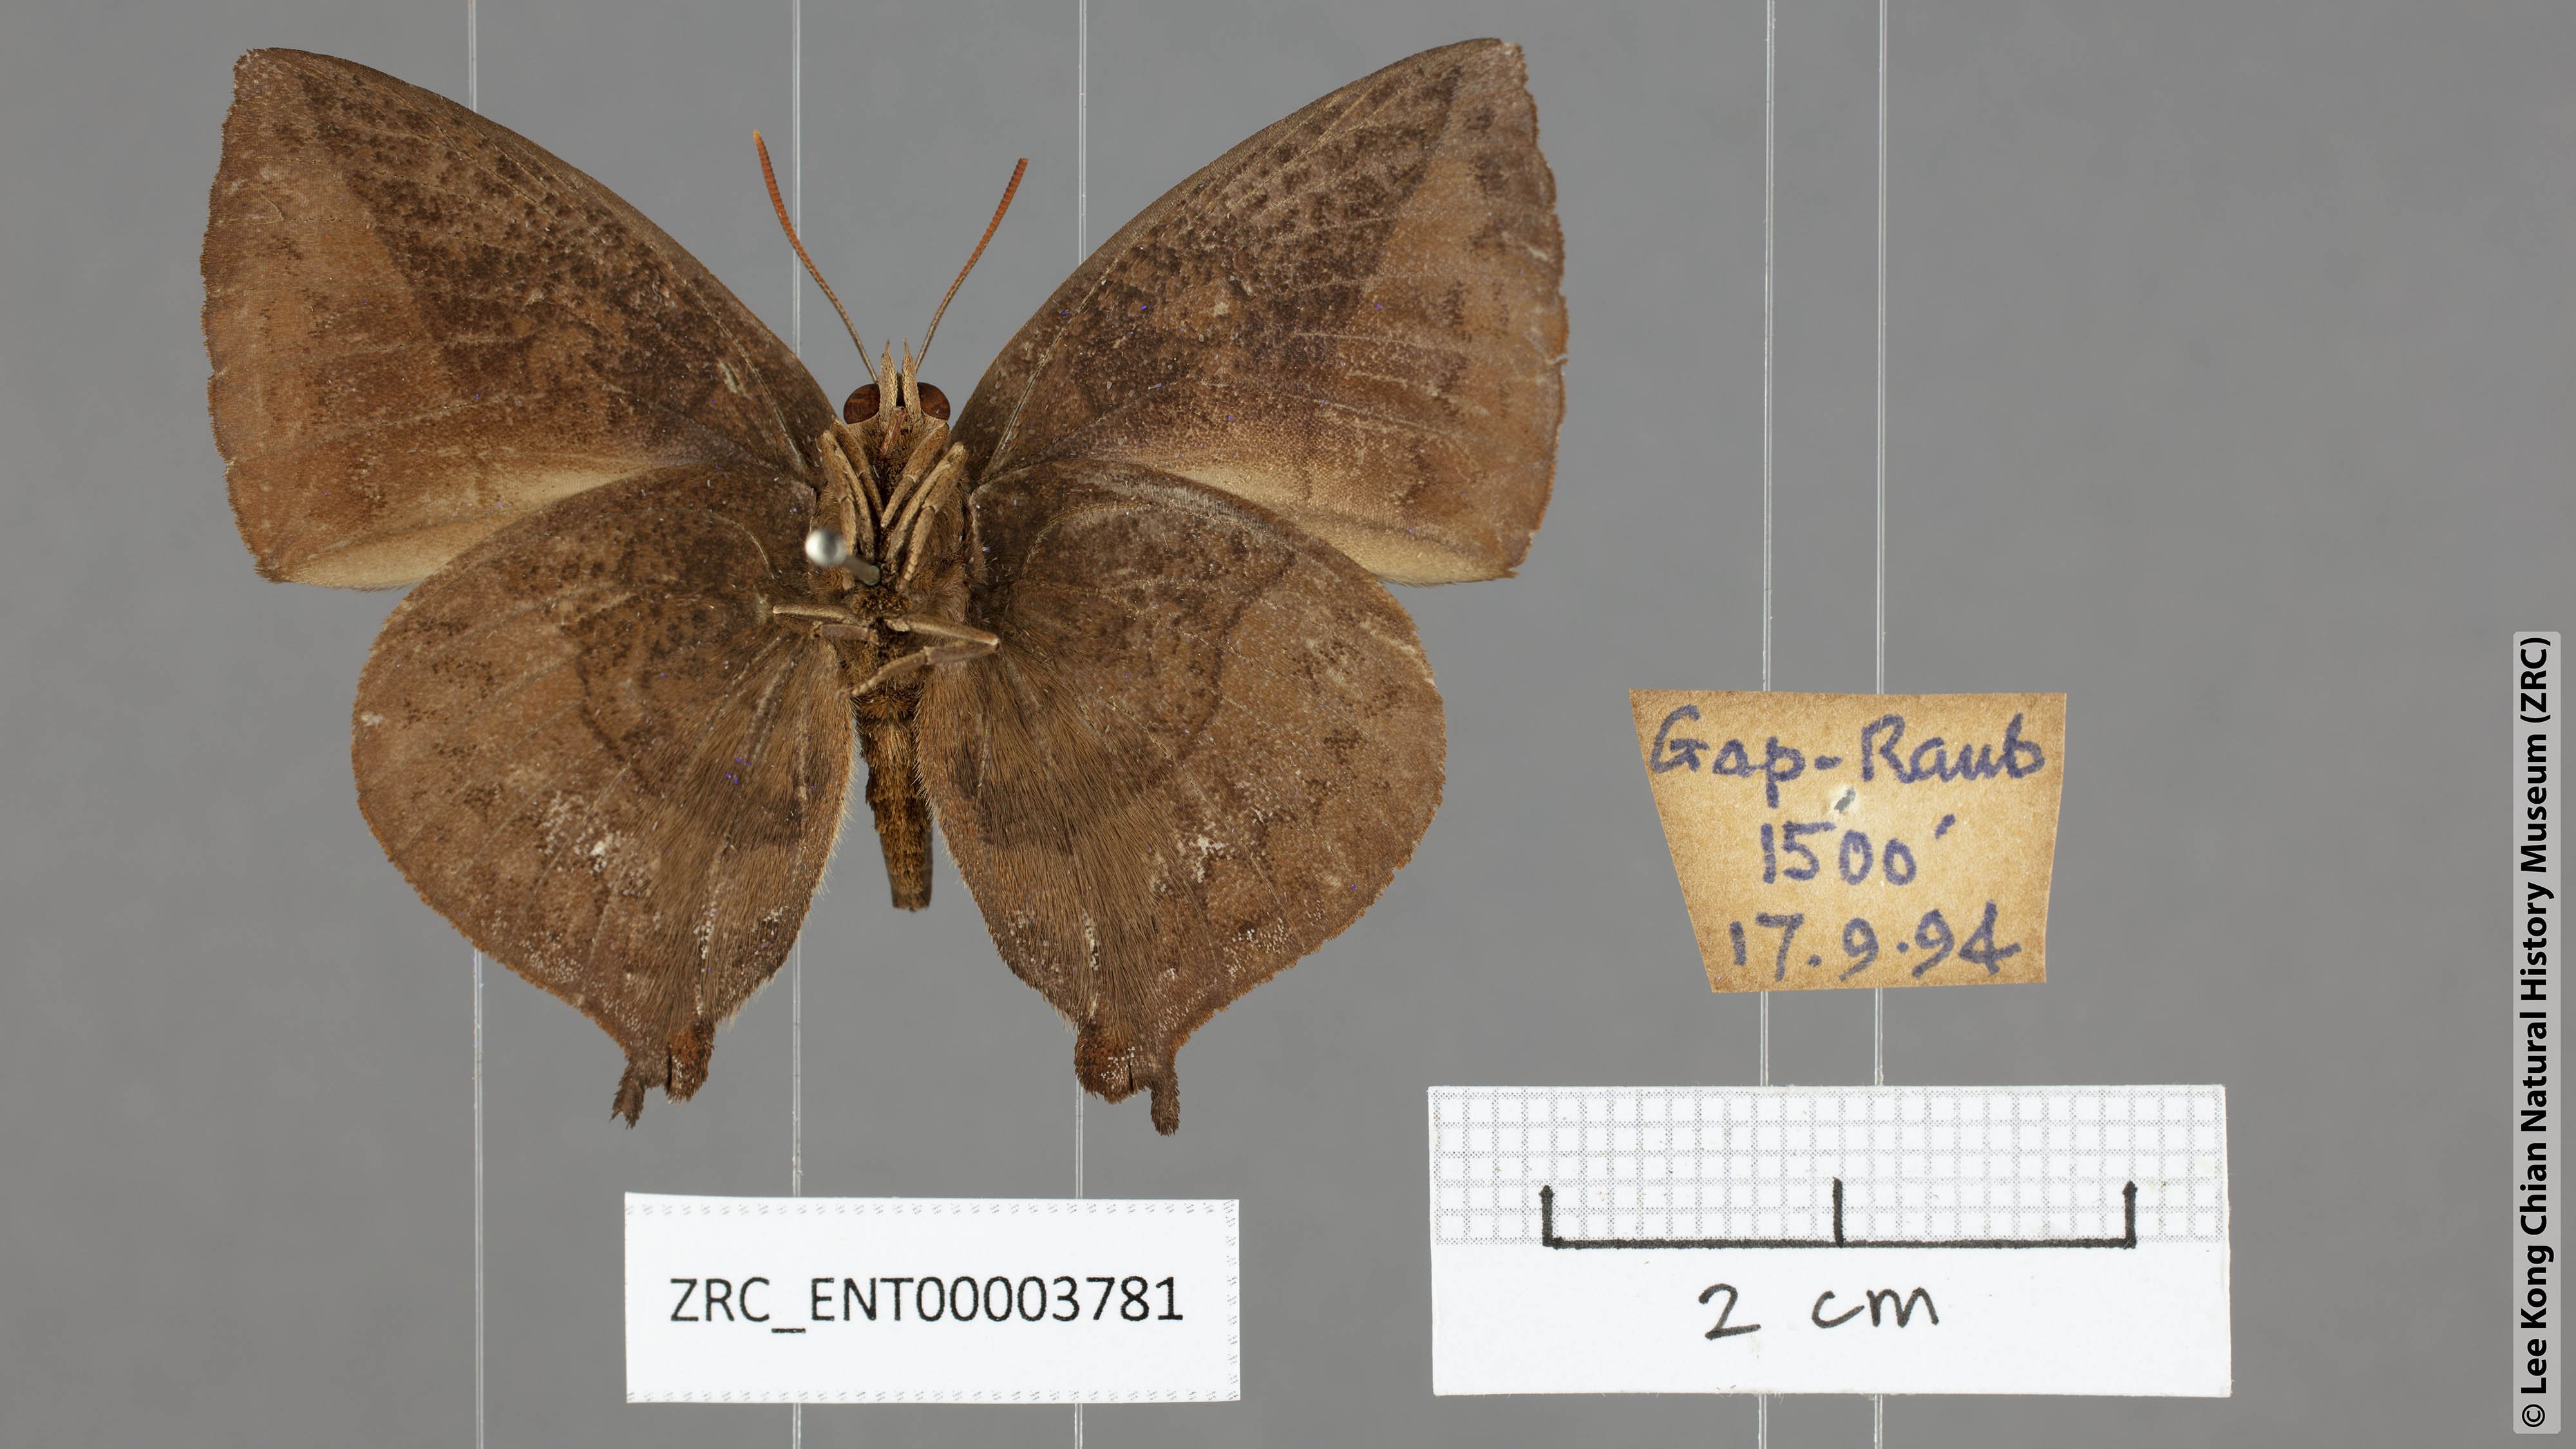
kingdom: Animalia
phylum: Arthropoda
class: Insecta
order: Lepidoptera
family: Lycaenidae
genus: Amblypodia
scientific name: Amblypodia narada
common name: Blue leaf blue
